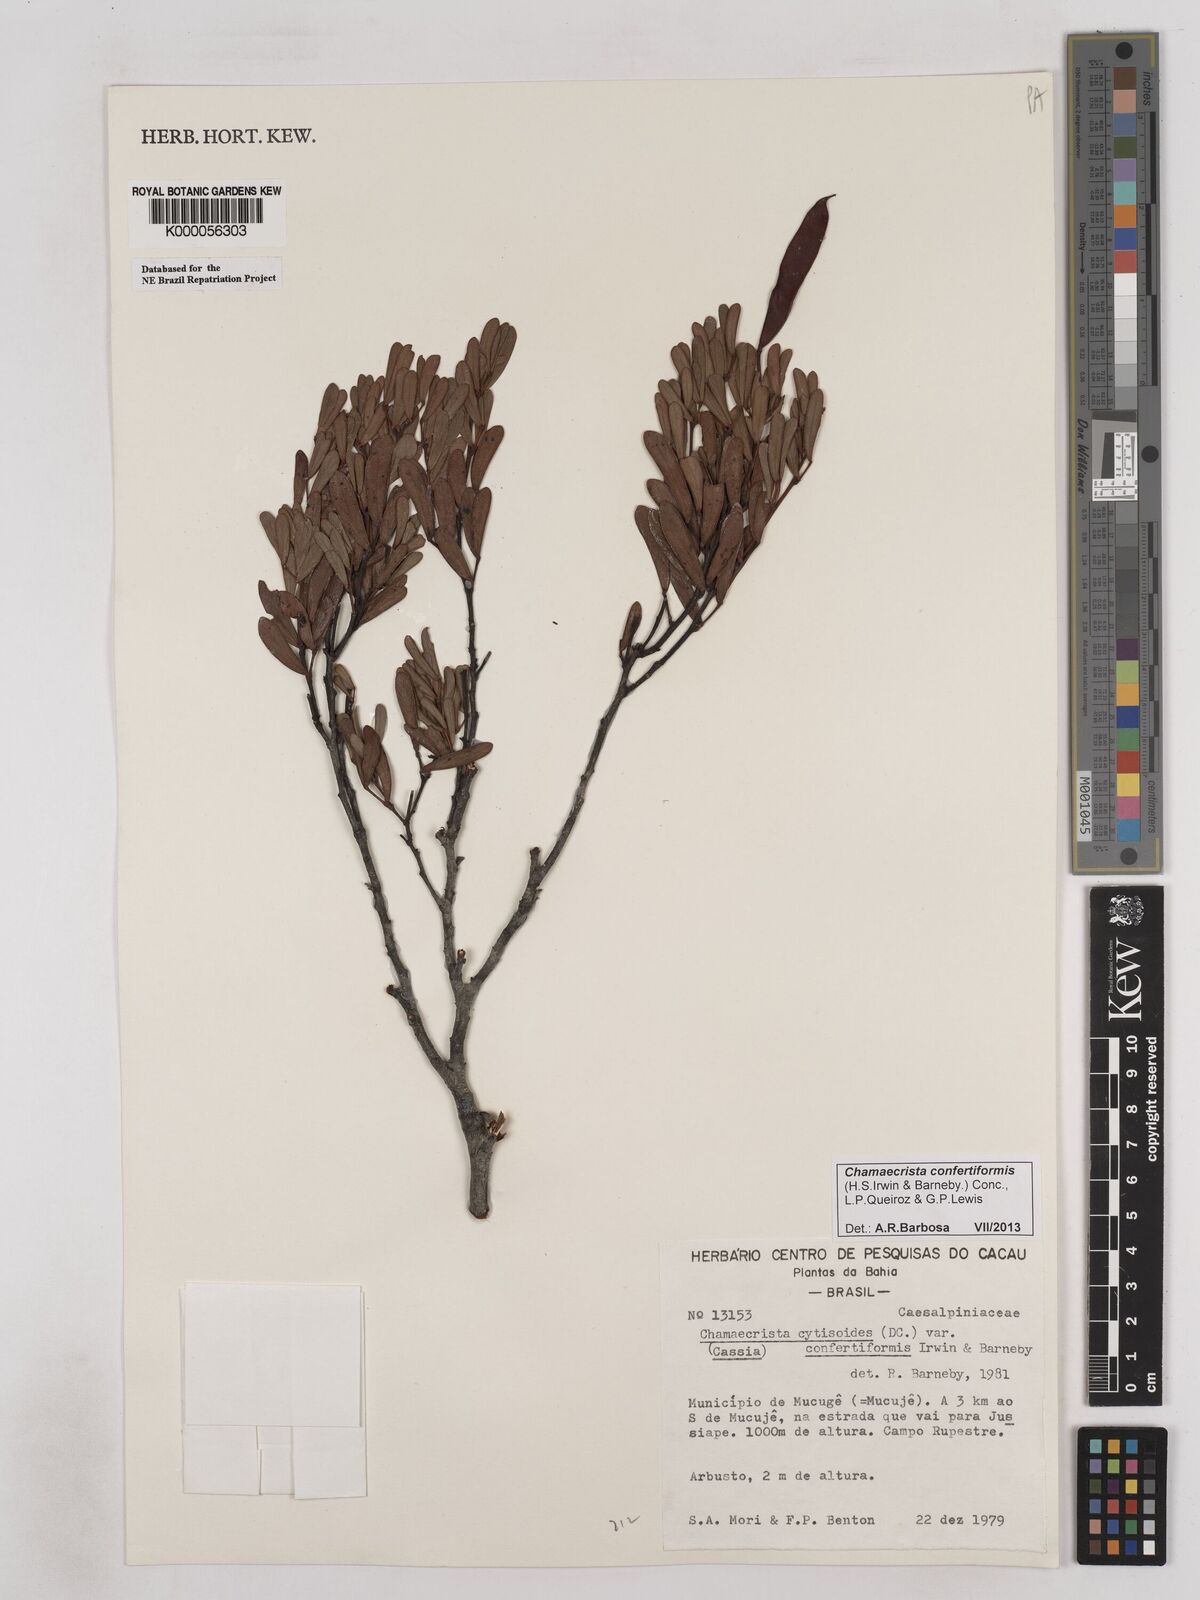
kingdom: Plantae
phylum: Tracheophyta
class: Magnoliopsida
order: Fabales
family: Fabaceae
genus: Chamaecrista
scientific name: Chamaecrista confertiformis
